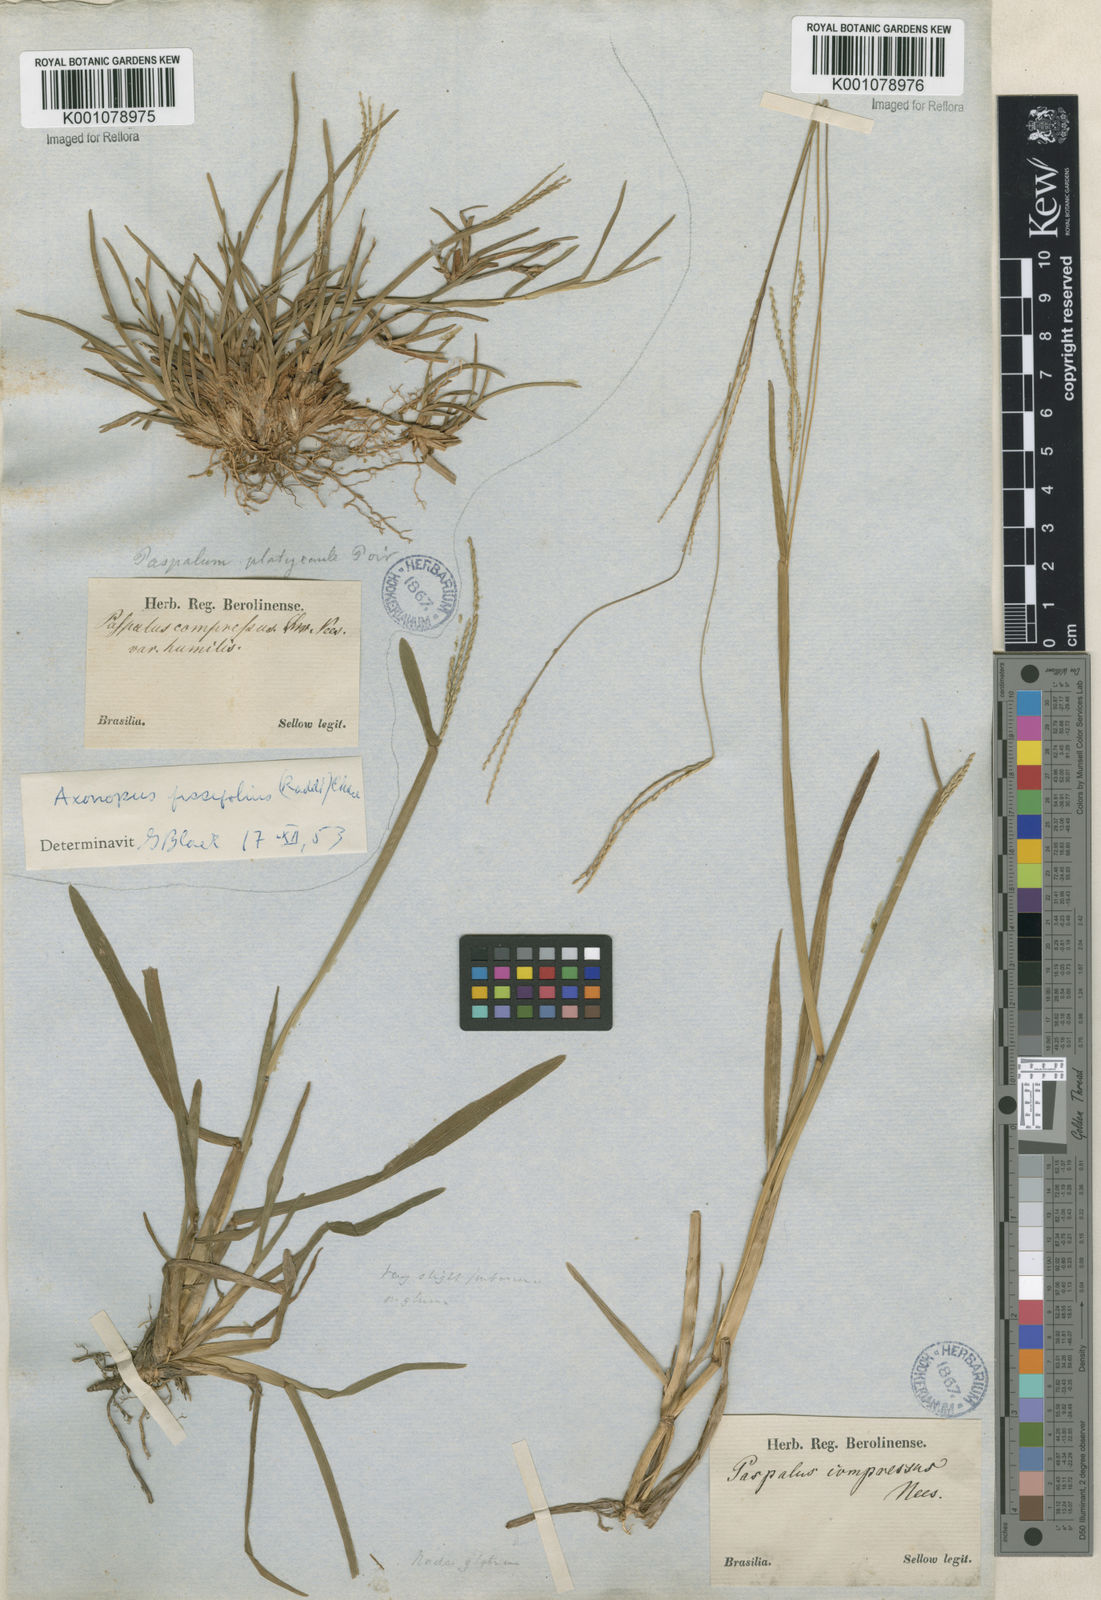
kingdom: Plantae
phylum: Tracheophyta
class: Liliopsida
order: Poales
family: Poaceae
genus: Axonopus
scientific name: Axonopus fissifolius
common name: Common carpetgrass
